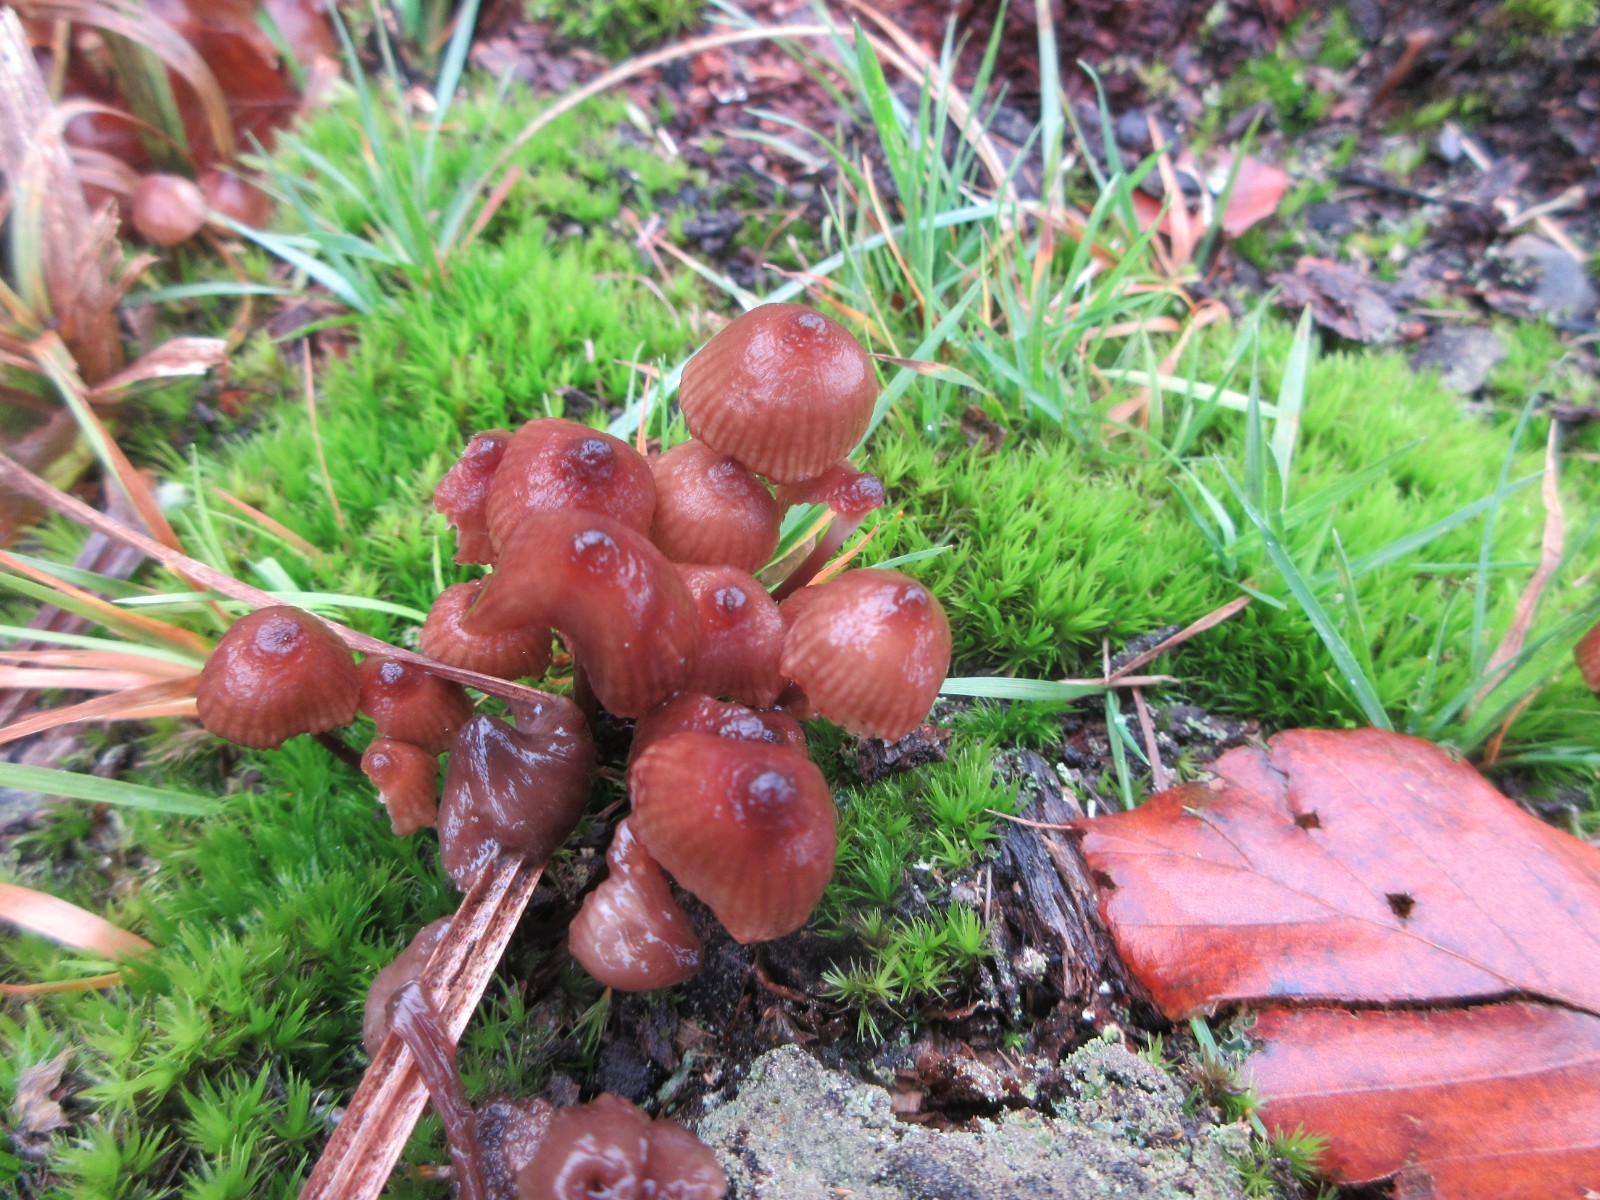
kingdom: Fungi
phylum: Basidiomycota
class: Agaricomycetes
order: Agaricales
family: Mycenaceae
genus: Mycena
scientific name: Mycena
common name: huesvamp
